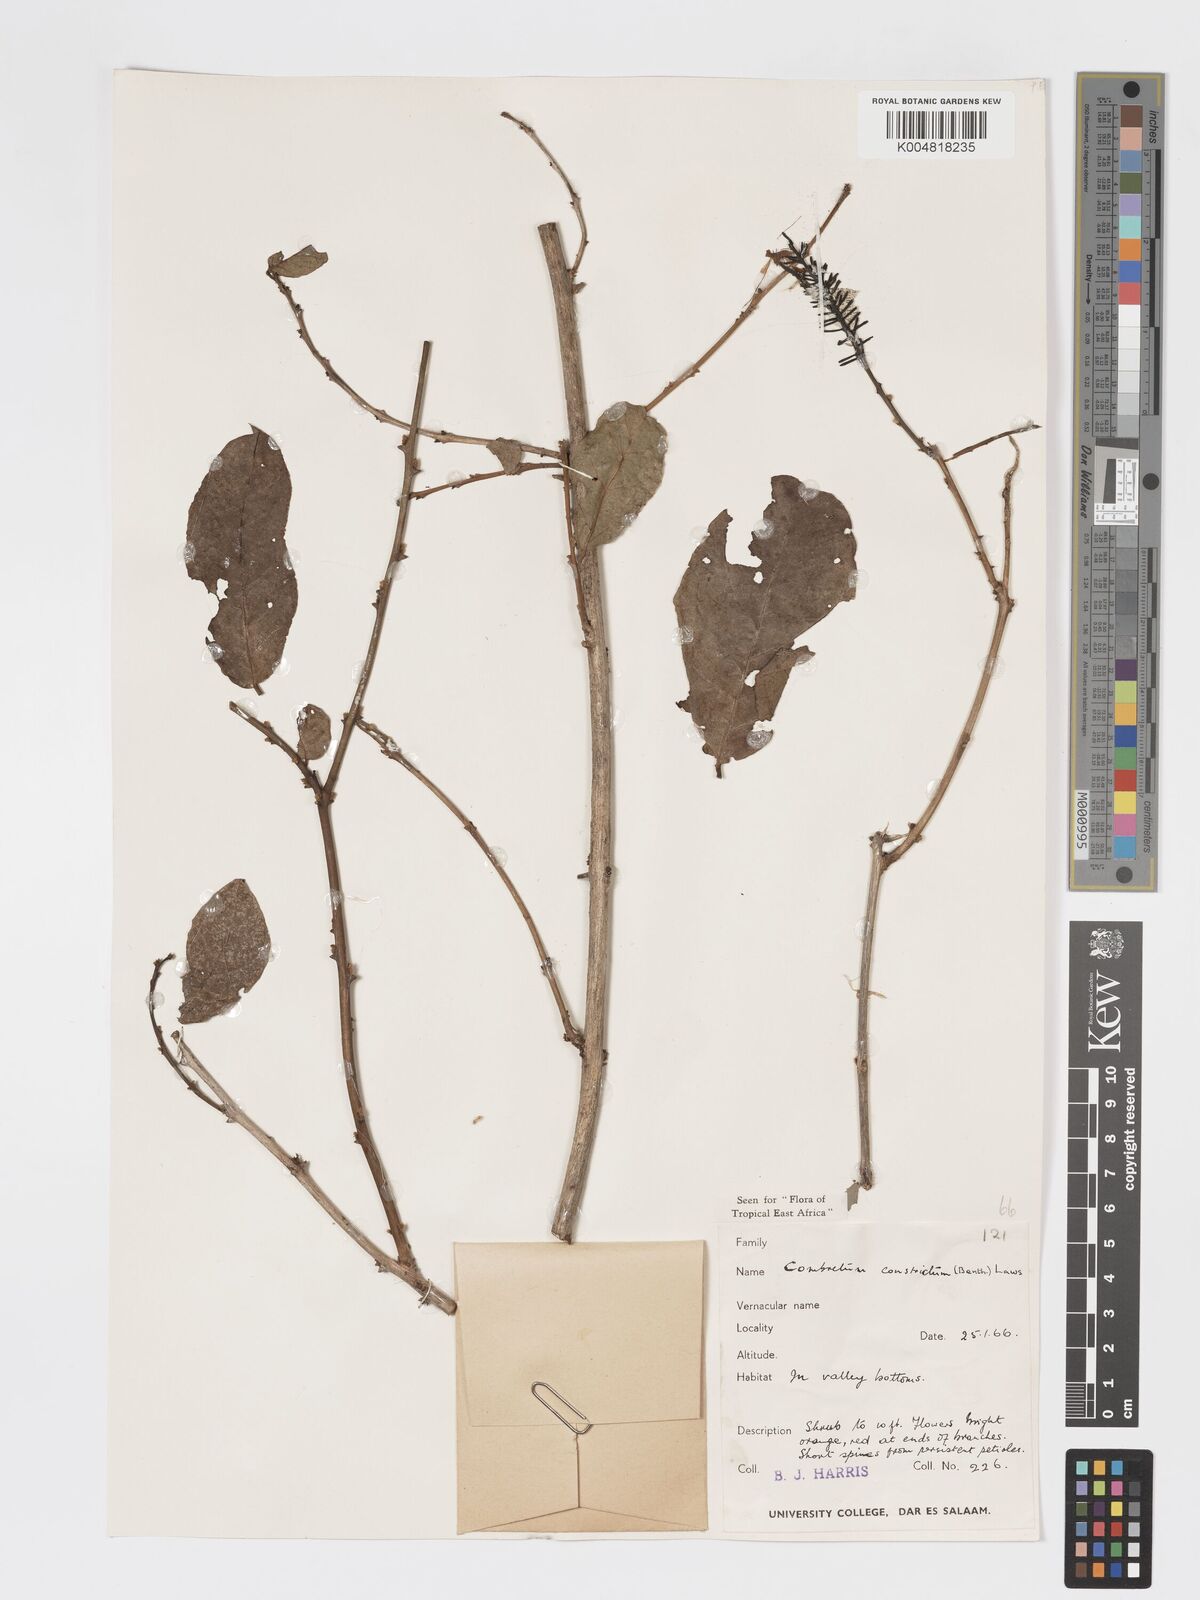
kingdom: Plantae
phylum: Tracheophyta
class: Magnoliopsida
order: Myrtales
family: Combretaceae
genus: Combretum
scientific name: Combretum constrictum
